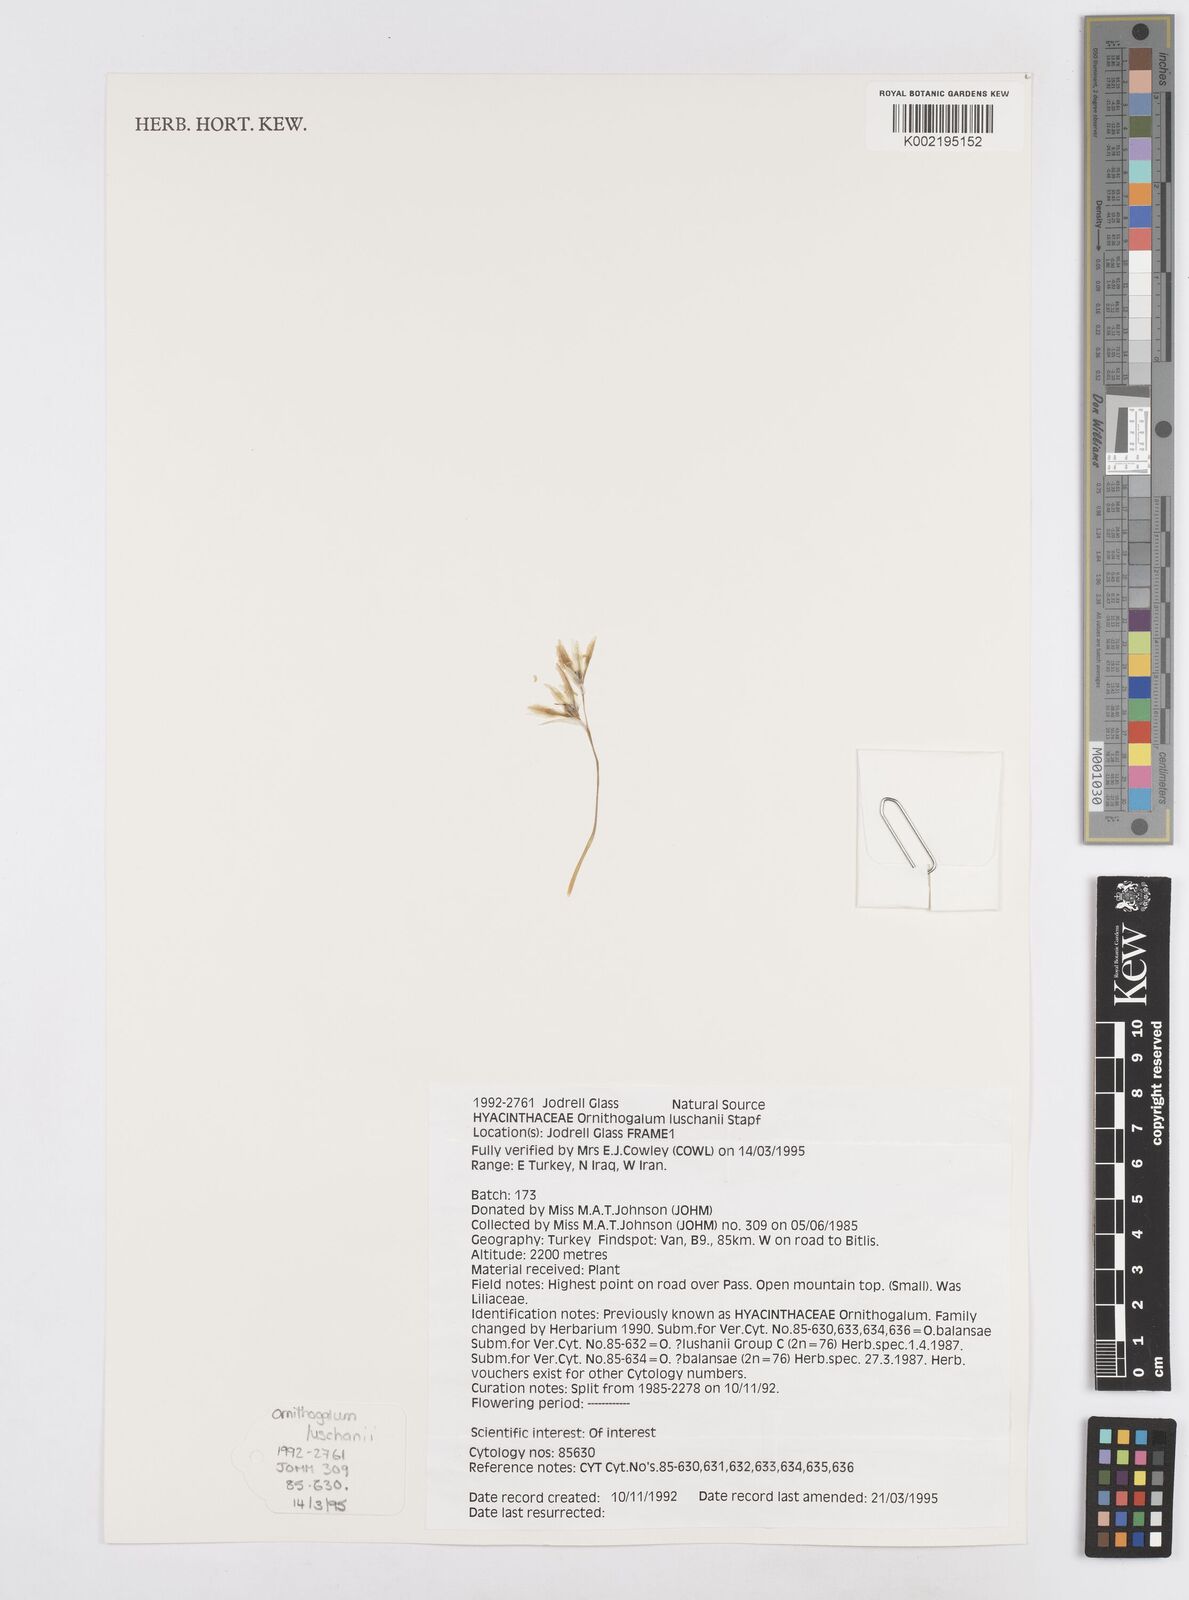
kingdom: Plantae
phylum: Tracheophyta
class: Liliopsida
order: Asparagales
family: Asparagaceae
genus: Ornithogalum
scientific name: Ornithogalum luschanii
